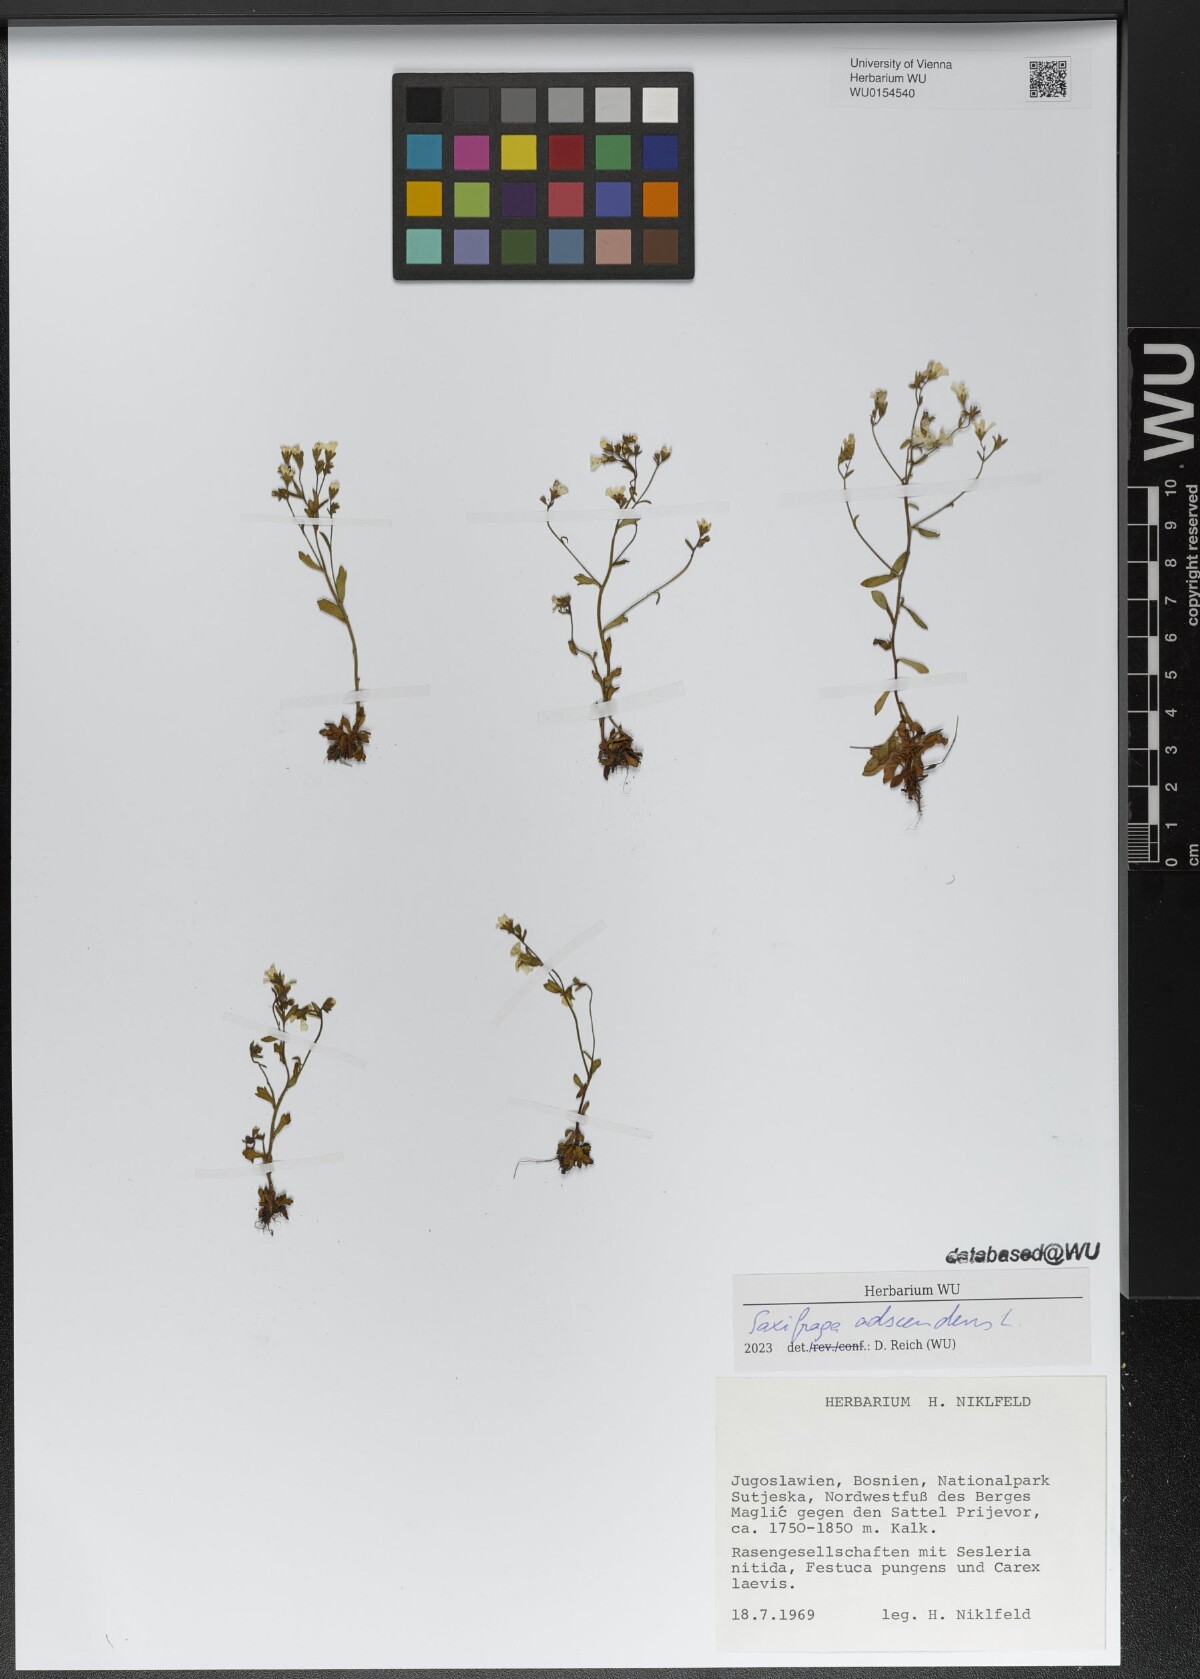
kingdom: Plantae
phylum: Tracheophyta
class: Magnoliopsida
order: Saxifragales
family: Saxifragaceae
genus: Saxifraga
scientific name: Saxifraga adscendens
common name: Ascending saxifrage
